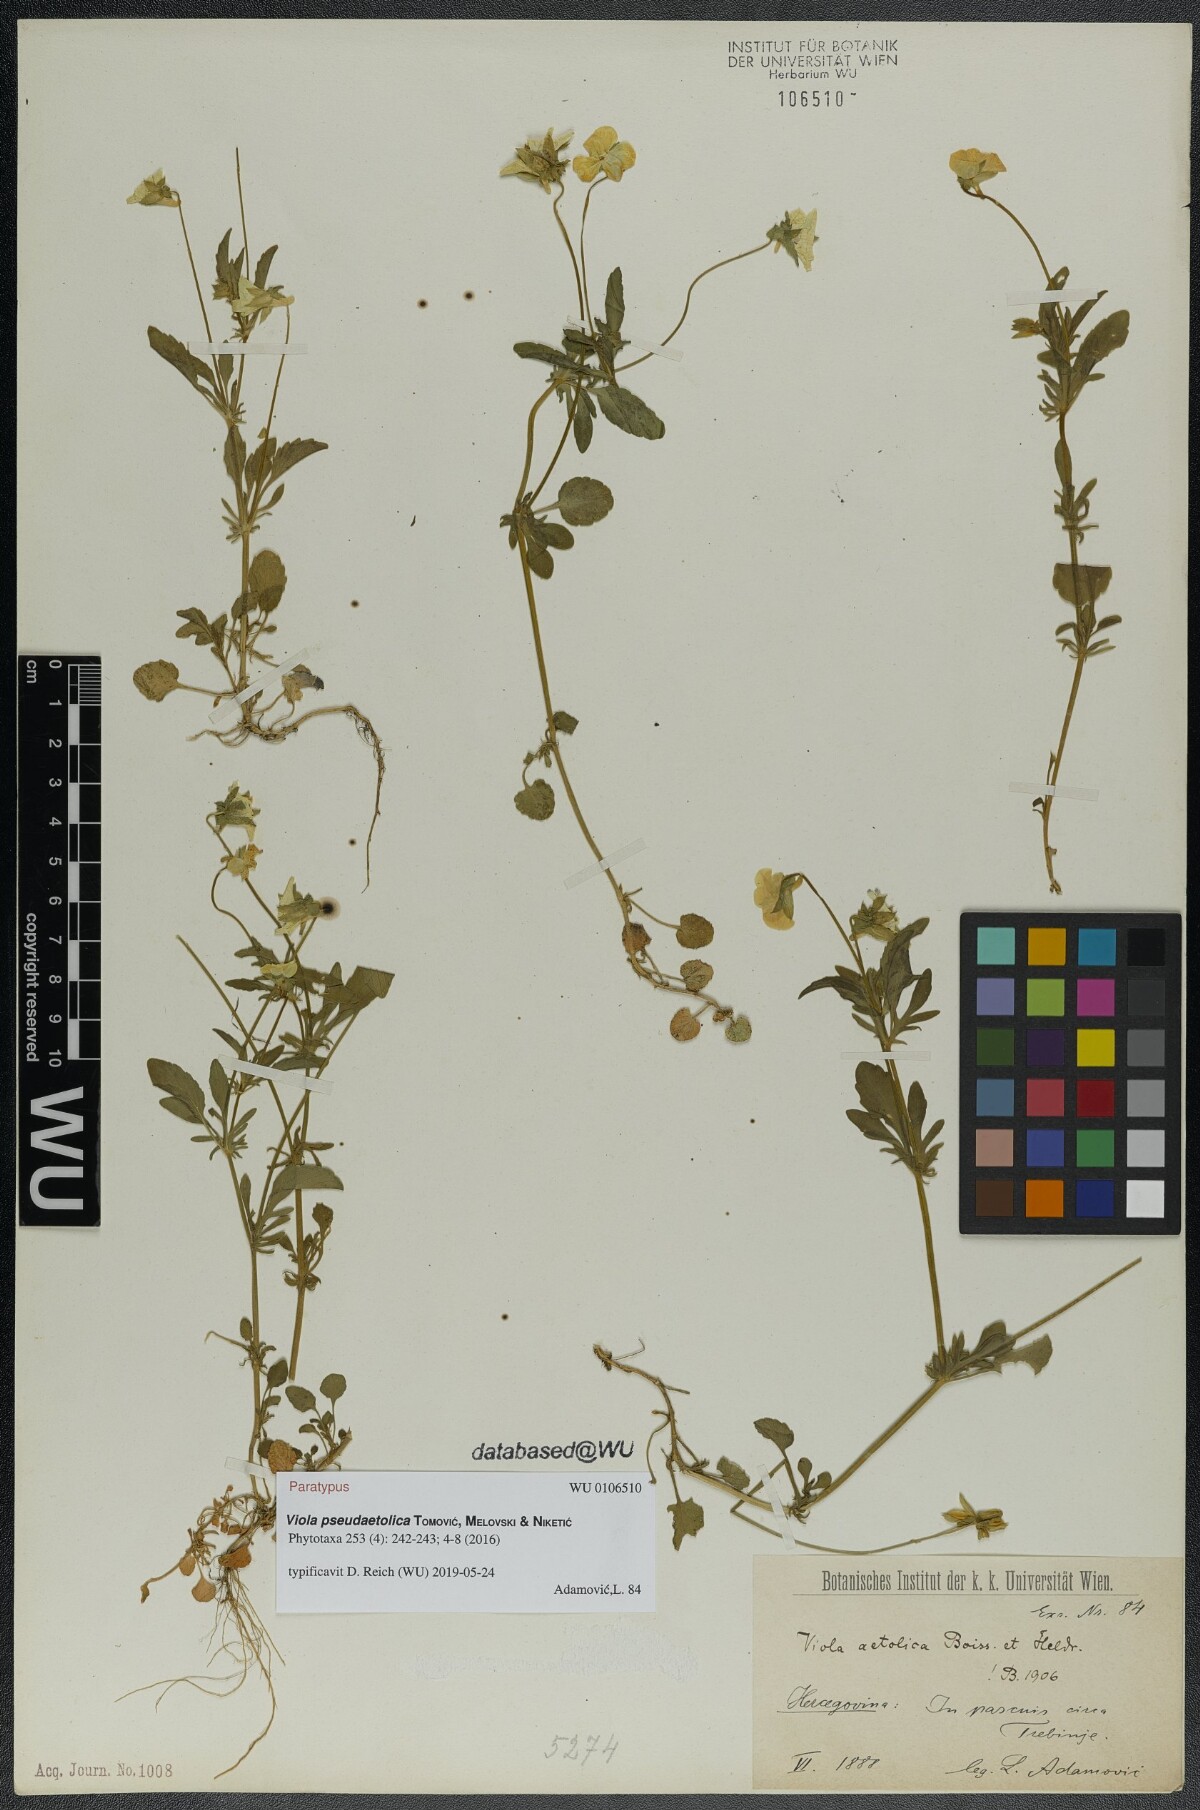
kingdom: Plantae
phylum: Tracheophyta
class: Magnoliopsida
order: Malpighiales
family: Violaceae
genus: Viola
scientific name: Viola pseudaetolica
